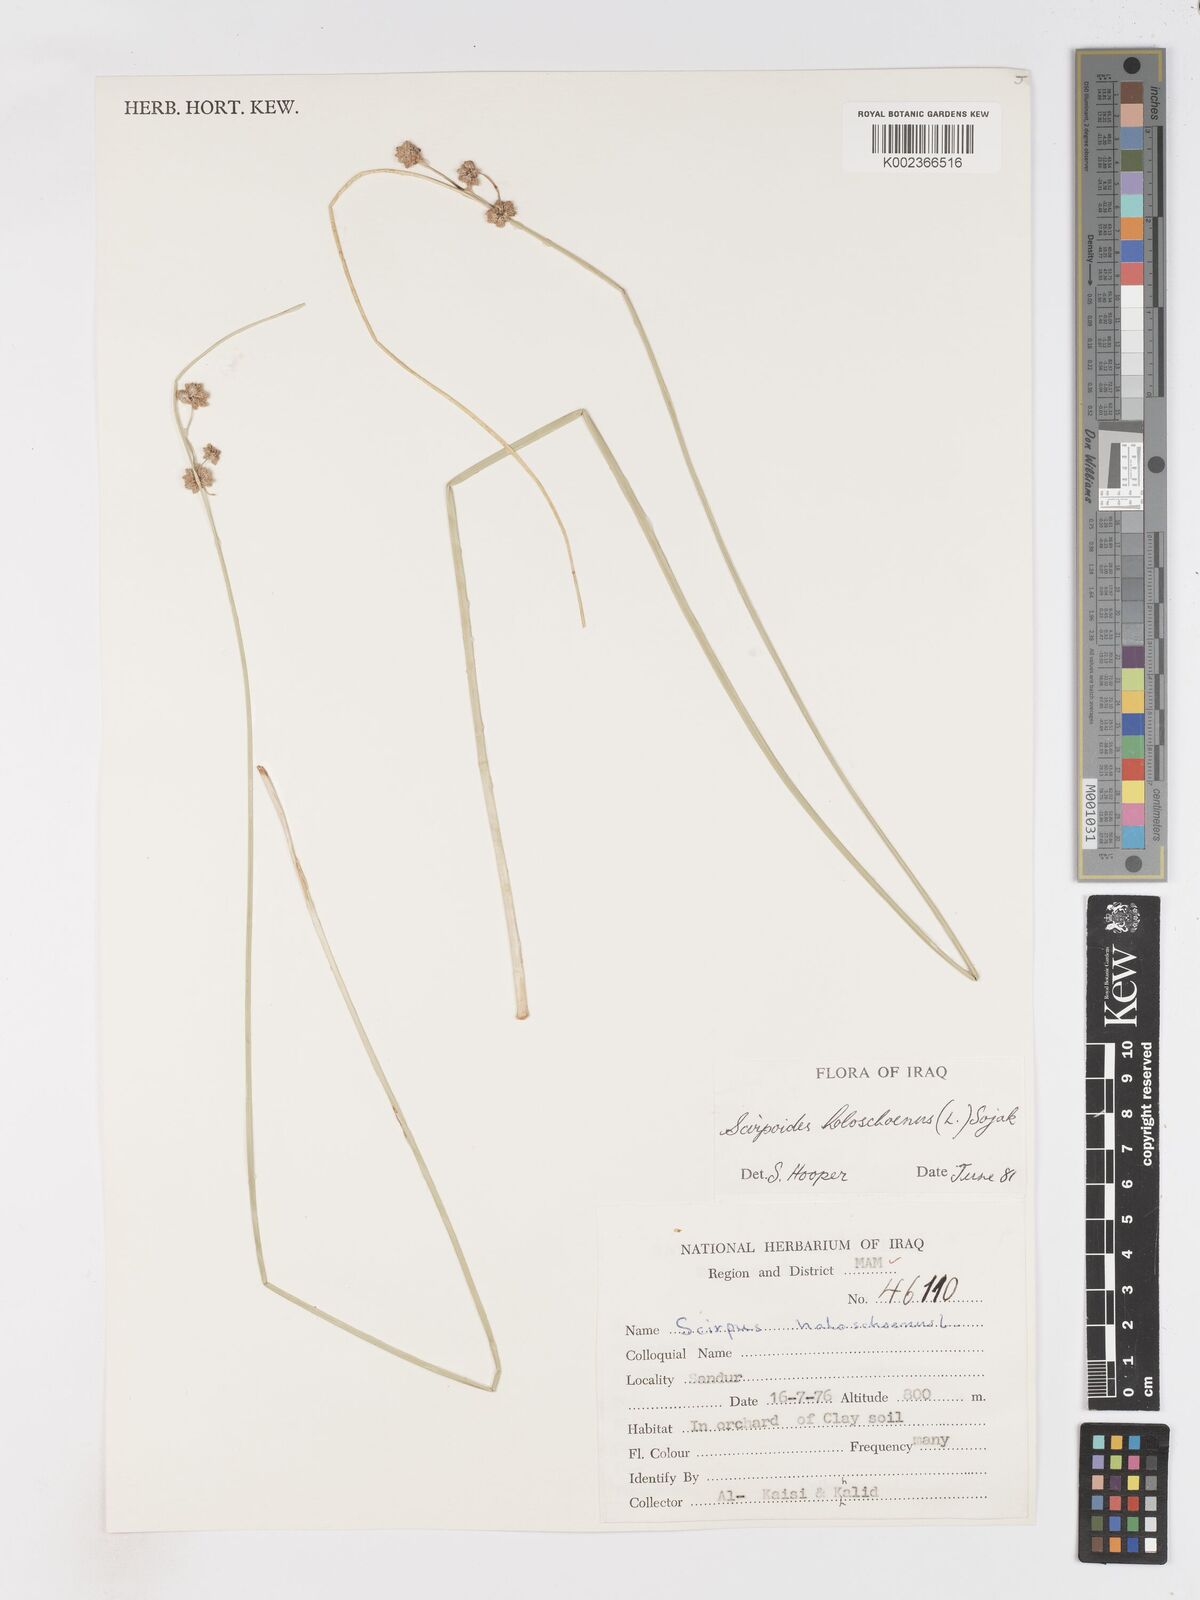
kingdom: Plantae
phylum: Tracheophyta
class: Liliopsida
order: Poales
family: Cyperaceae
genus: Scirpoides
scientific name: Scirpoides holoschoenus
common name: Round-headed club-rush
